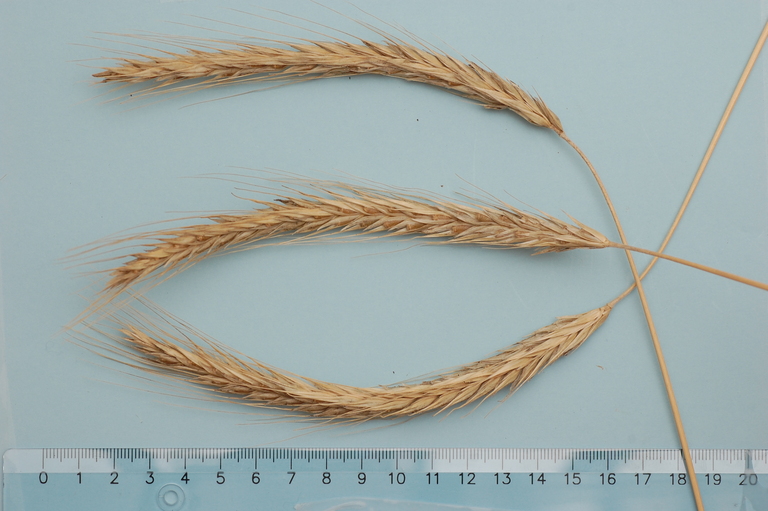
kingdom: Plantae
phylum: Tracheophyta
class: Liliopsida
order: Poales
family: Poaceae
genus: Secale
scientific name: Secale cereale
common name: Rye
